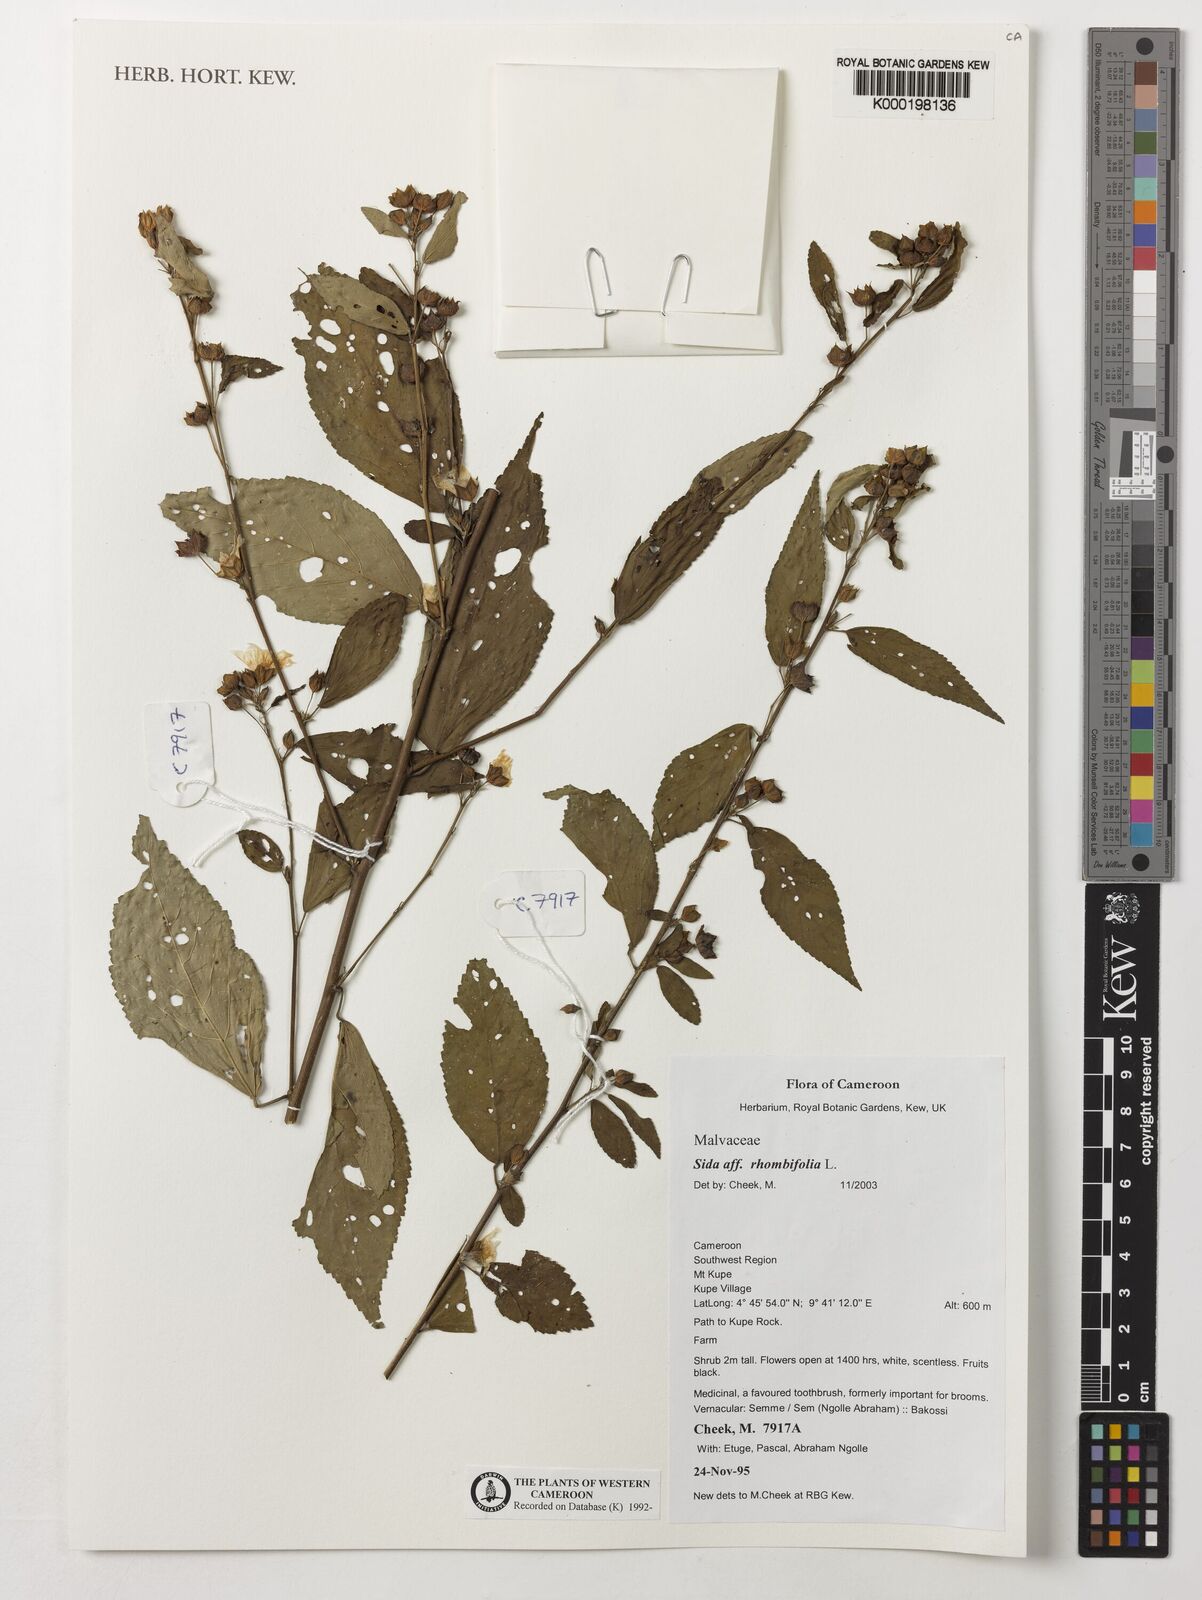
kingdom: Plantae
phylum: Tracheophyta
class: Magnoliopsida
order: Malvales
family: Malvaceae
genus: Sida
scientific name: Sida rhombifolia
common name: Queensland-hemp
